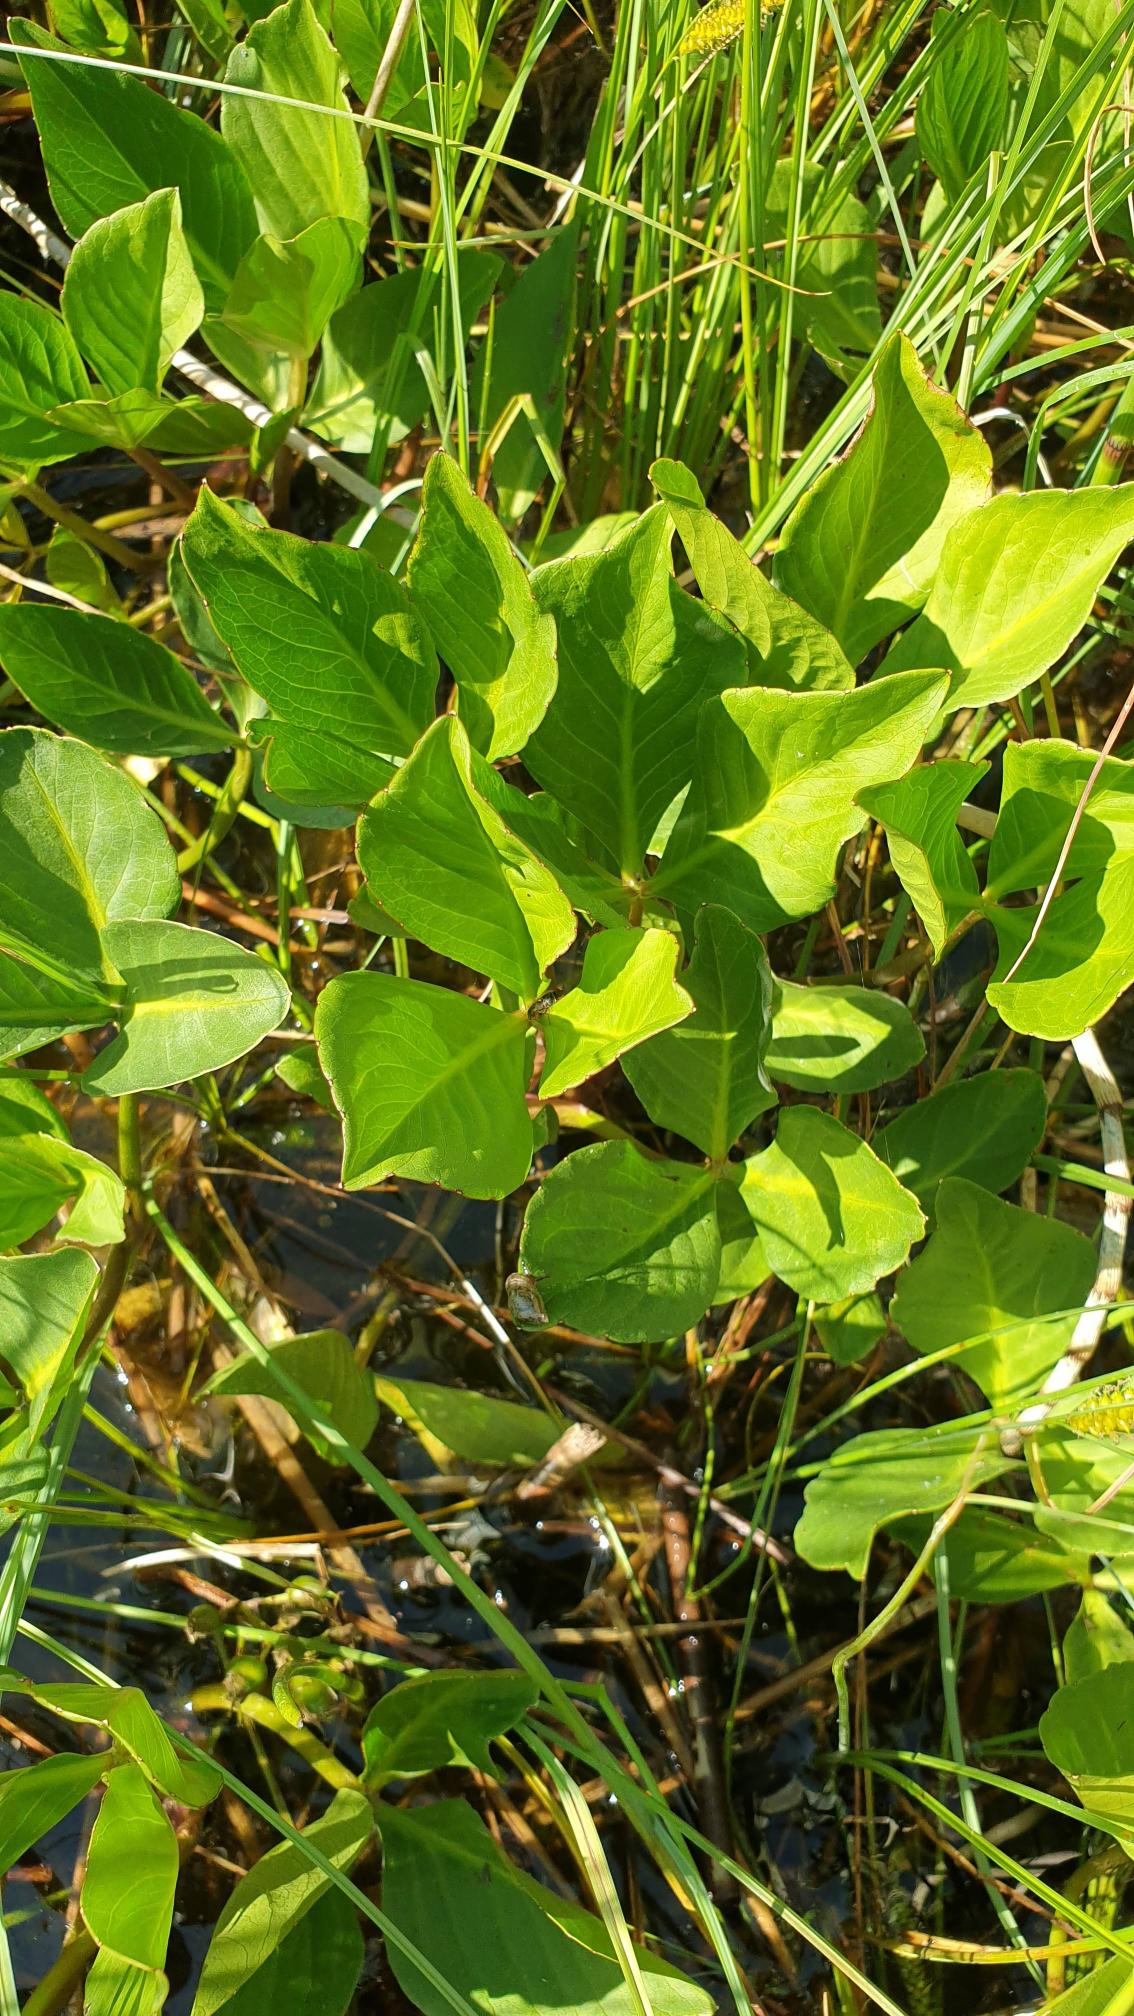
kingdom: Plantae
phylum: Tracheophyta
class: Magnoliopsida
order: Asterales
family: Menyanthaceae
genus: Menyanthes
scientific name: Menyanthes trifoliata
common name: Bukkeblad
